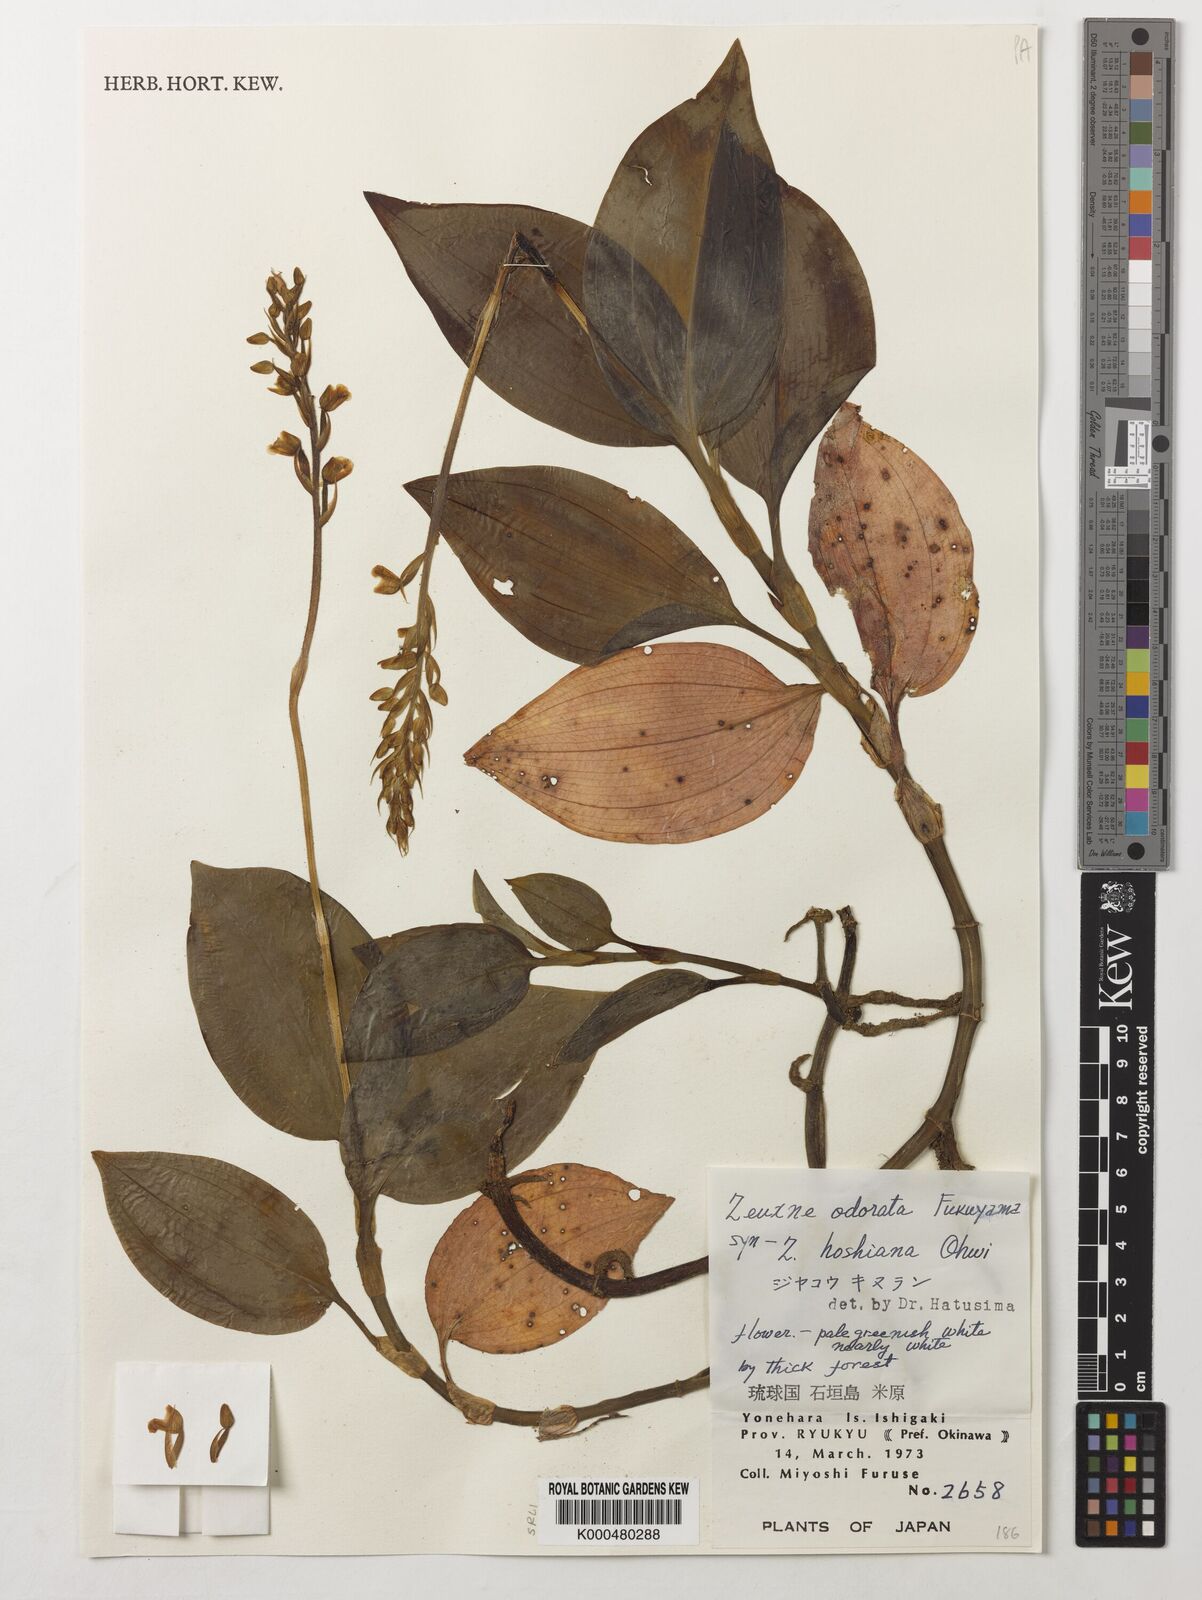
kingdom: Plantae
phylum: Tracheophyta
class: Liliopsida
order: Asparagales
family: Orchidaceae
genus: Zeuxine
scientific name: Zeuxine odorata
